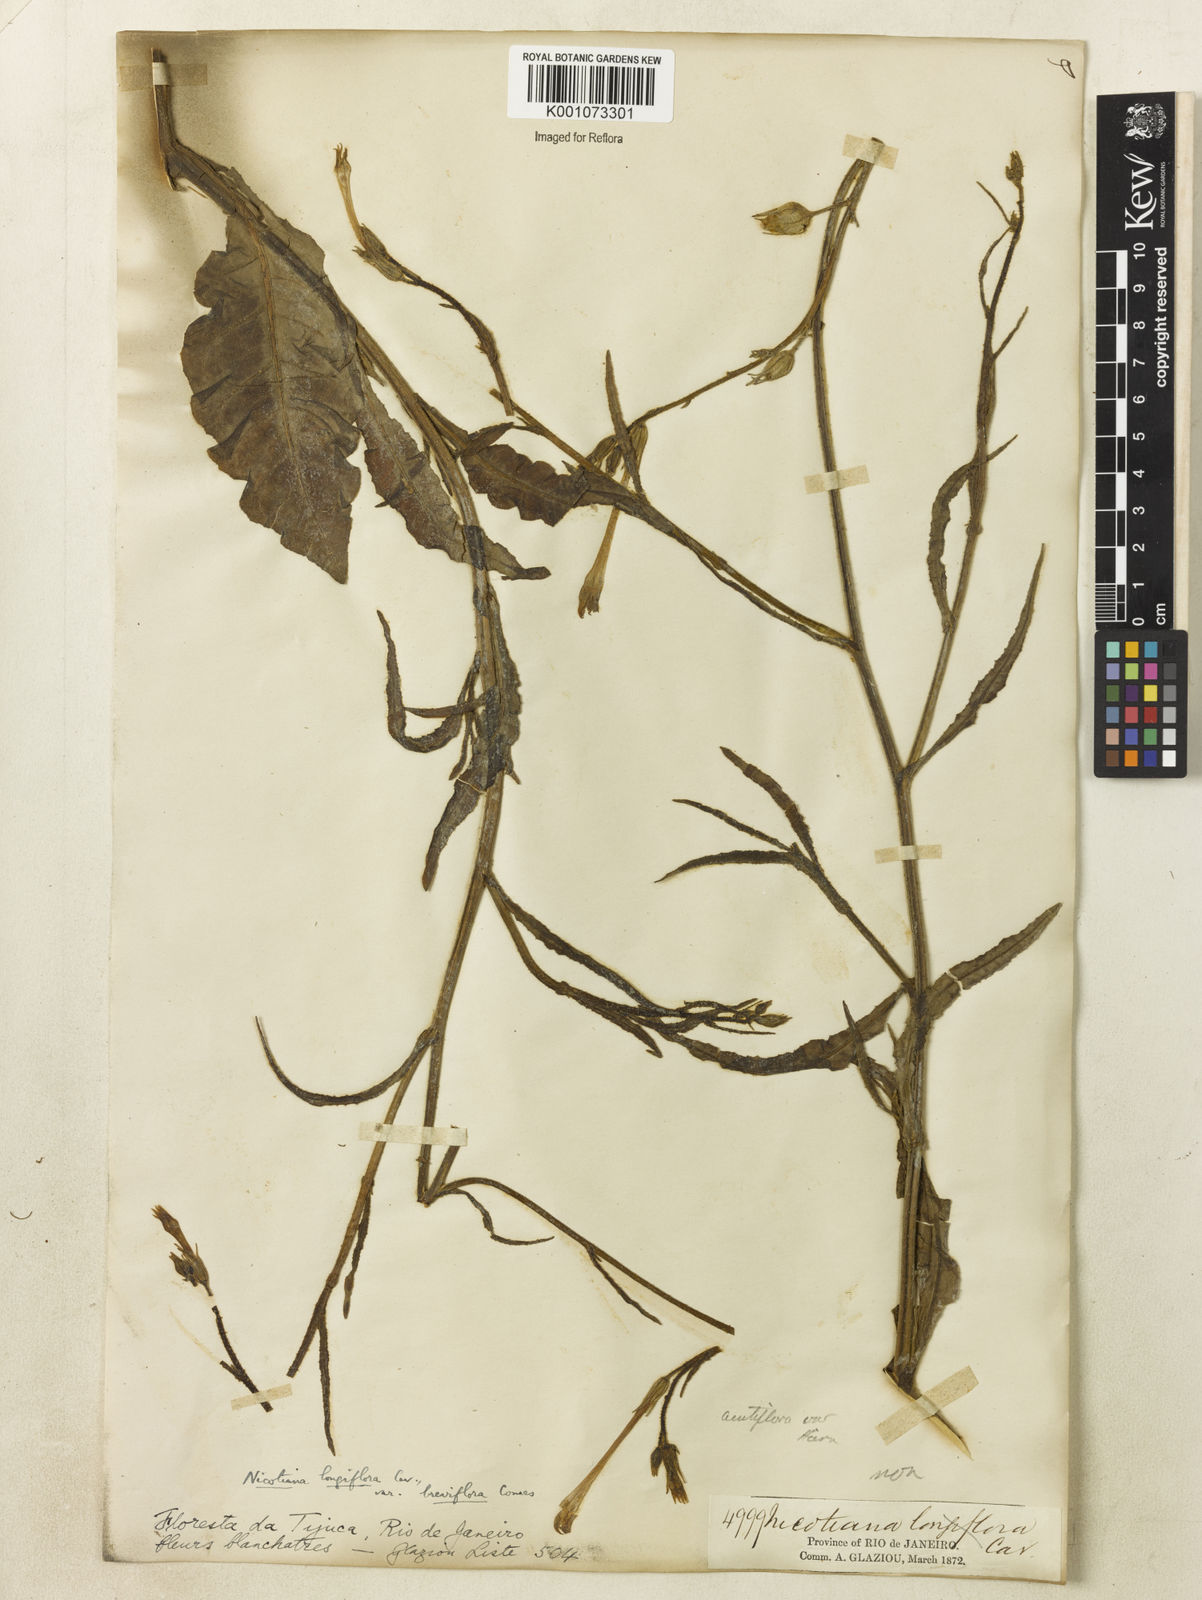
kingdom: Plantae
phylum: Tracheophyta
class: Magnoliopsida
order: Solanales
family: Solanaceae
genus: Nicotiana
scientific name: Nicotiana longiflora
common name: Long-flowered tobacco
